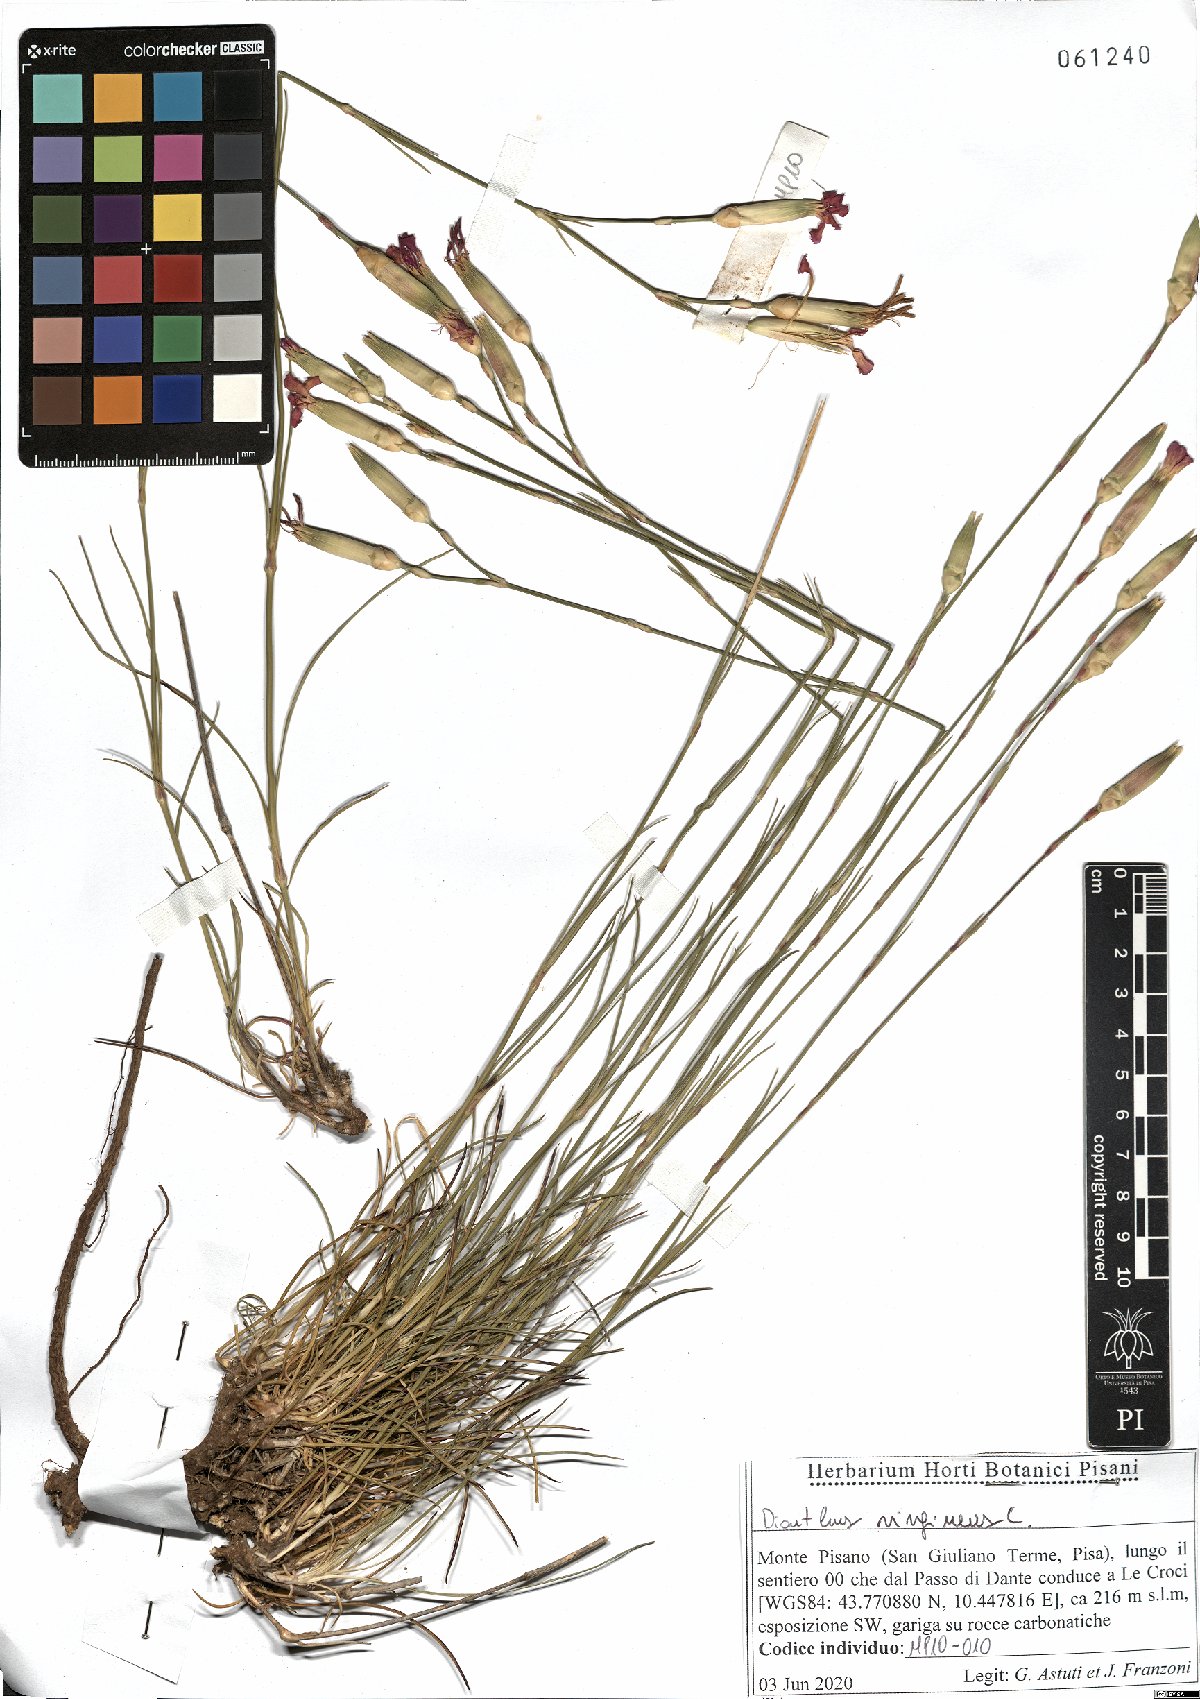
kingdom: Plantae
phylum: Tracheophyta
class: Magnoliopsida
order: Caryophyllales
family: Caryophyllaceae
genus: Dianthus
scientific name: Dianthus virgineus
